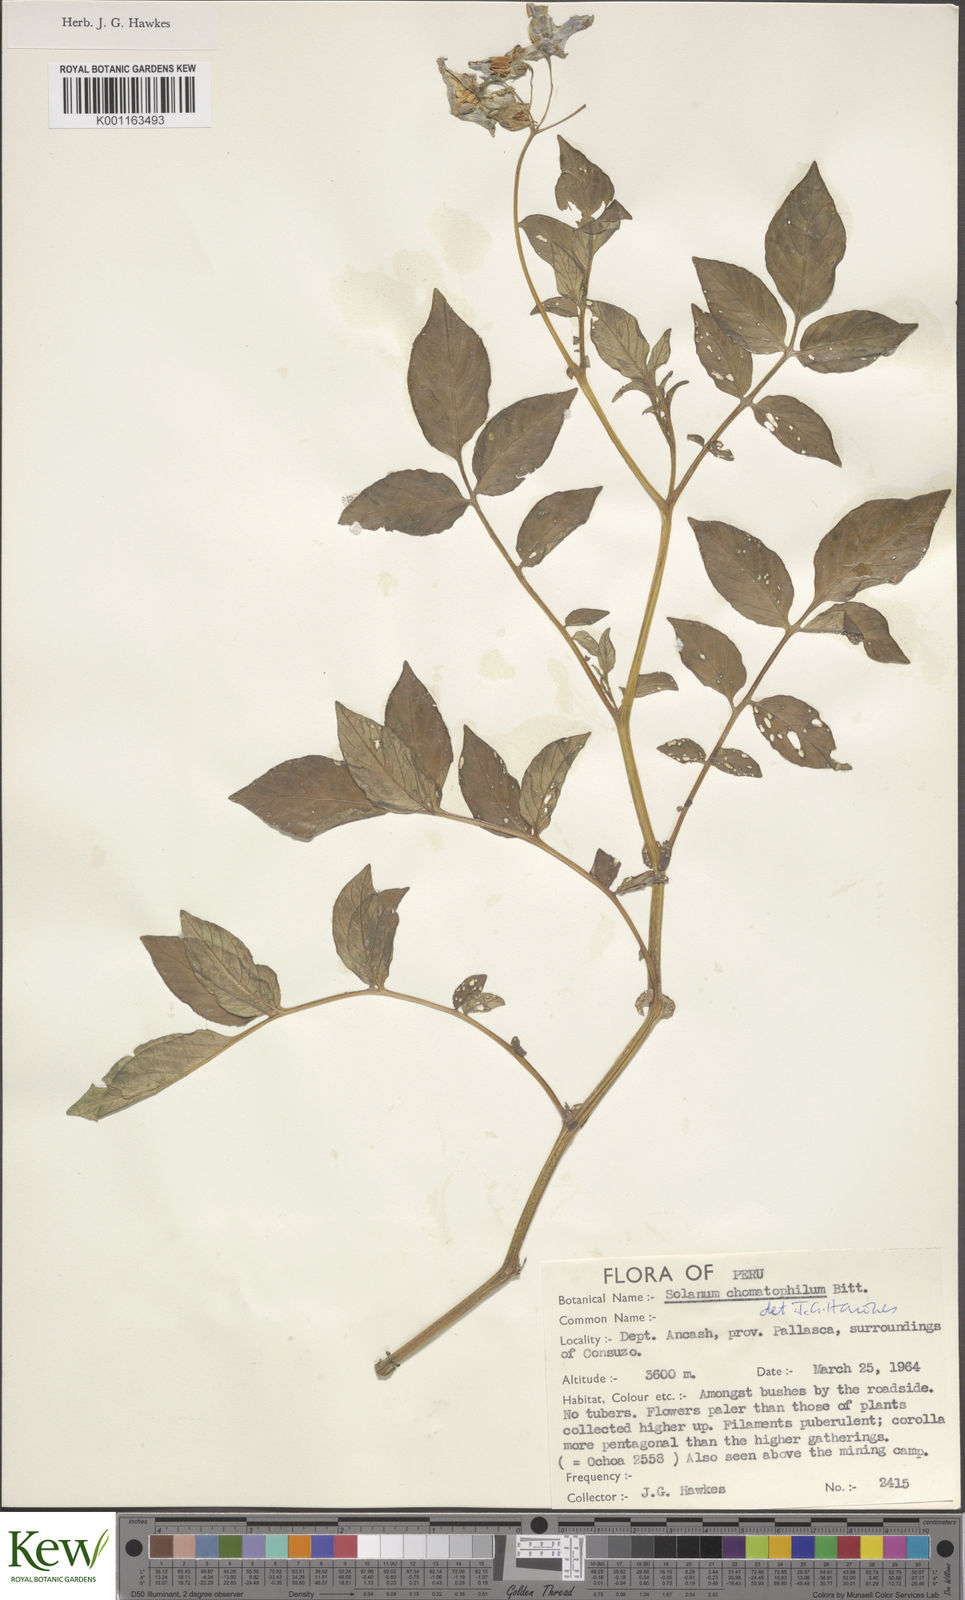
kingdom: Plantae
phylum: Tracheophyta
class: Magnoliopsida
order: Solanales
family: Solanaceae
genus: Solanum
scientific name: Solanum chomatophilum
